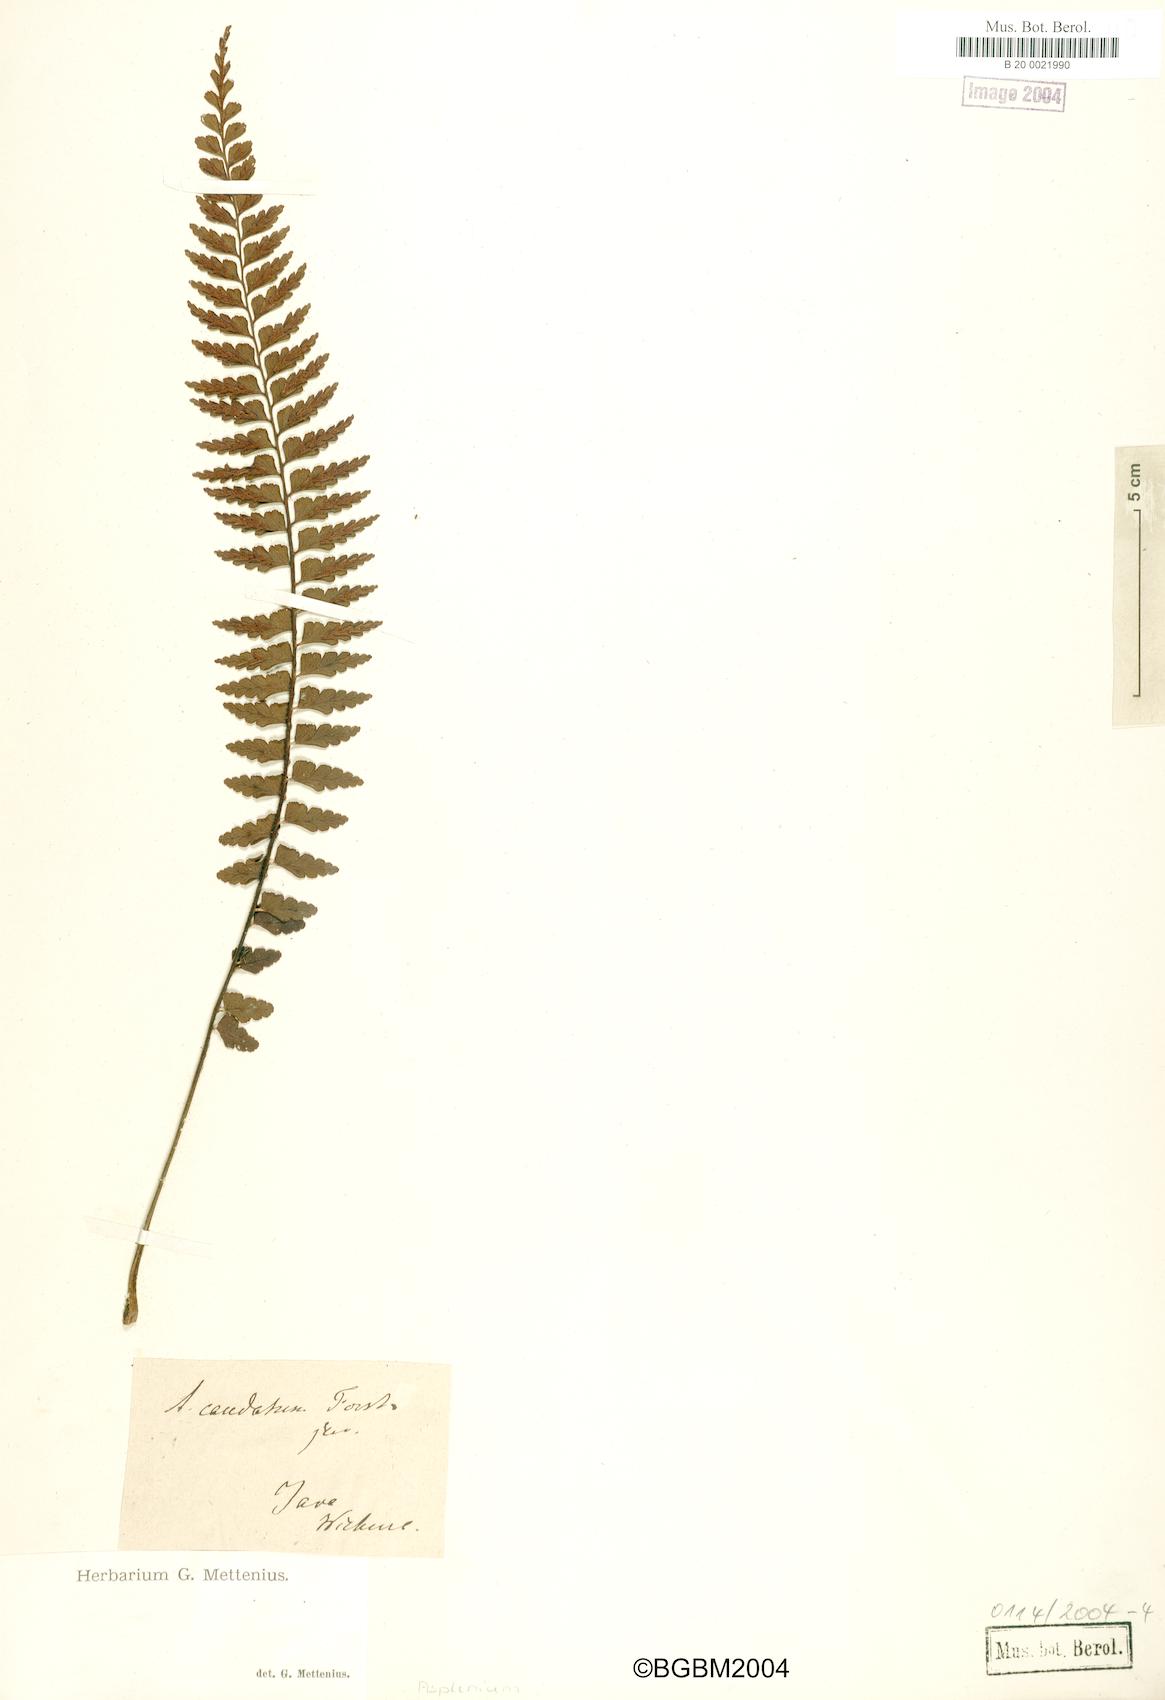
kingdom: Plantae
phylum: Tracheophyta
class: Polypodiopsida
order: Polypodiales
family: Aspleniaceae
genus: Asplenium
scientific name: Asplenium caudatum
